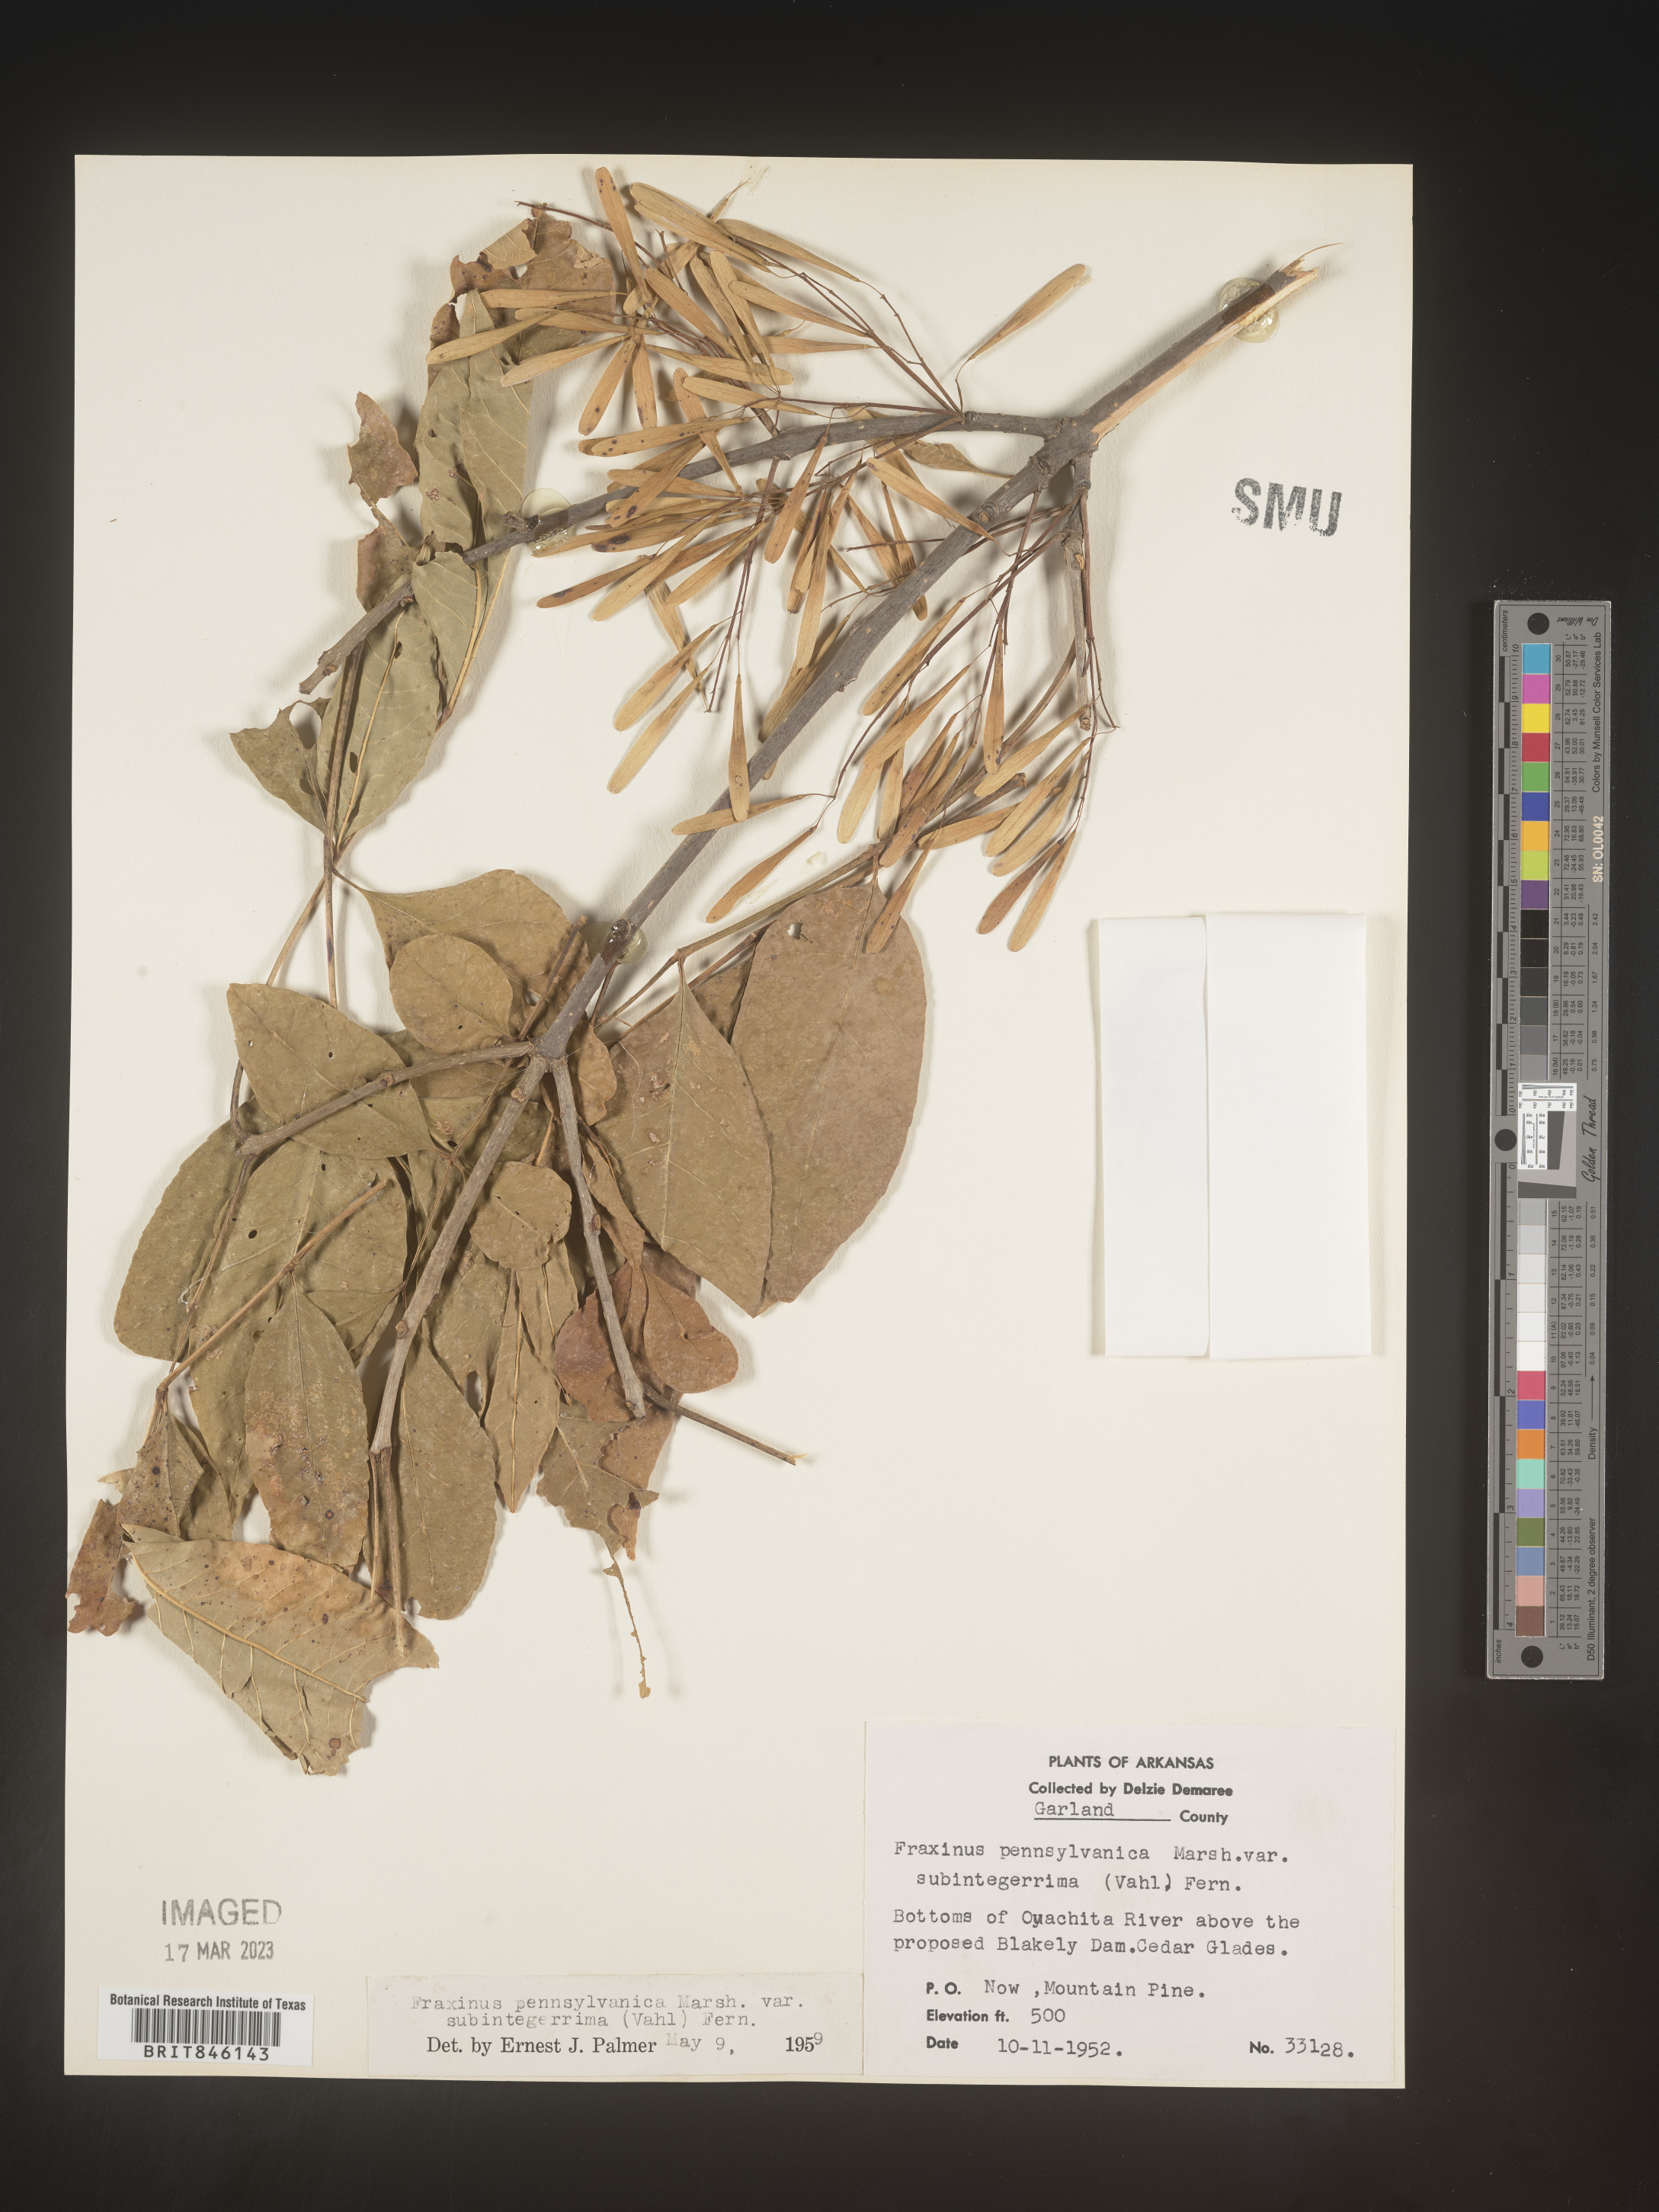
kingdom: Plantae
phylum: Tracheophyta
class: Magnoliopsida
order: Lamiales
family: Oleaceae
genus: Fraxinus
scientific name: Fraxinus pennsylvanica
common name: Green ash
